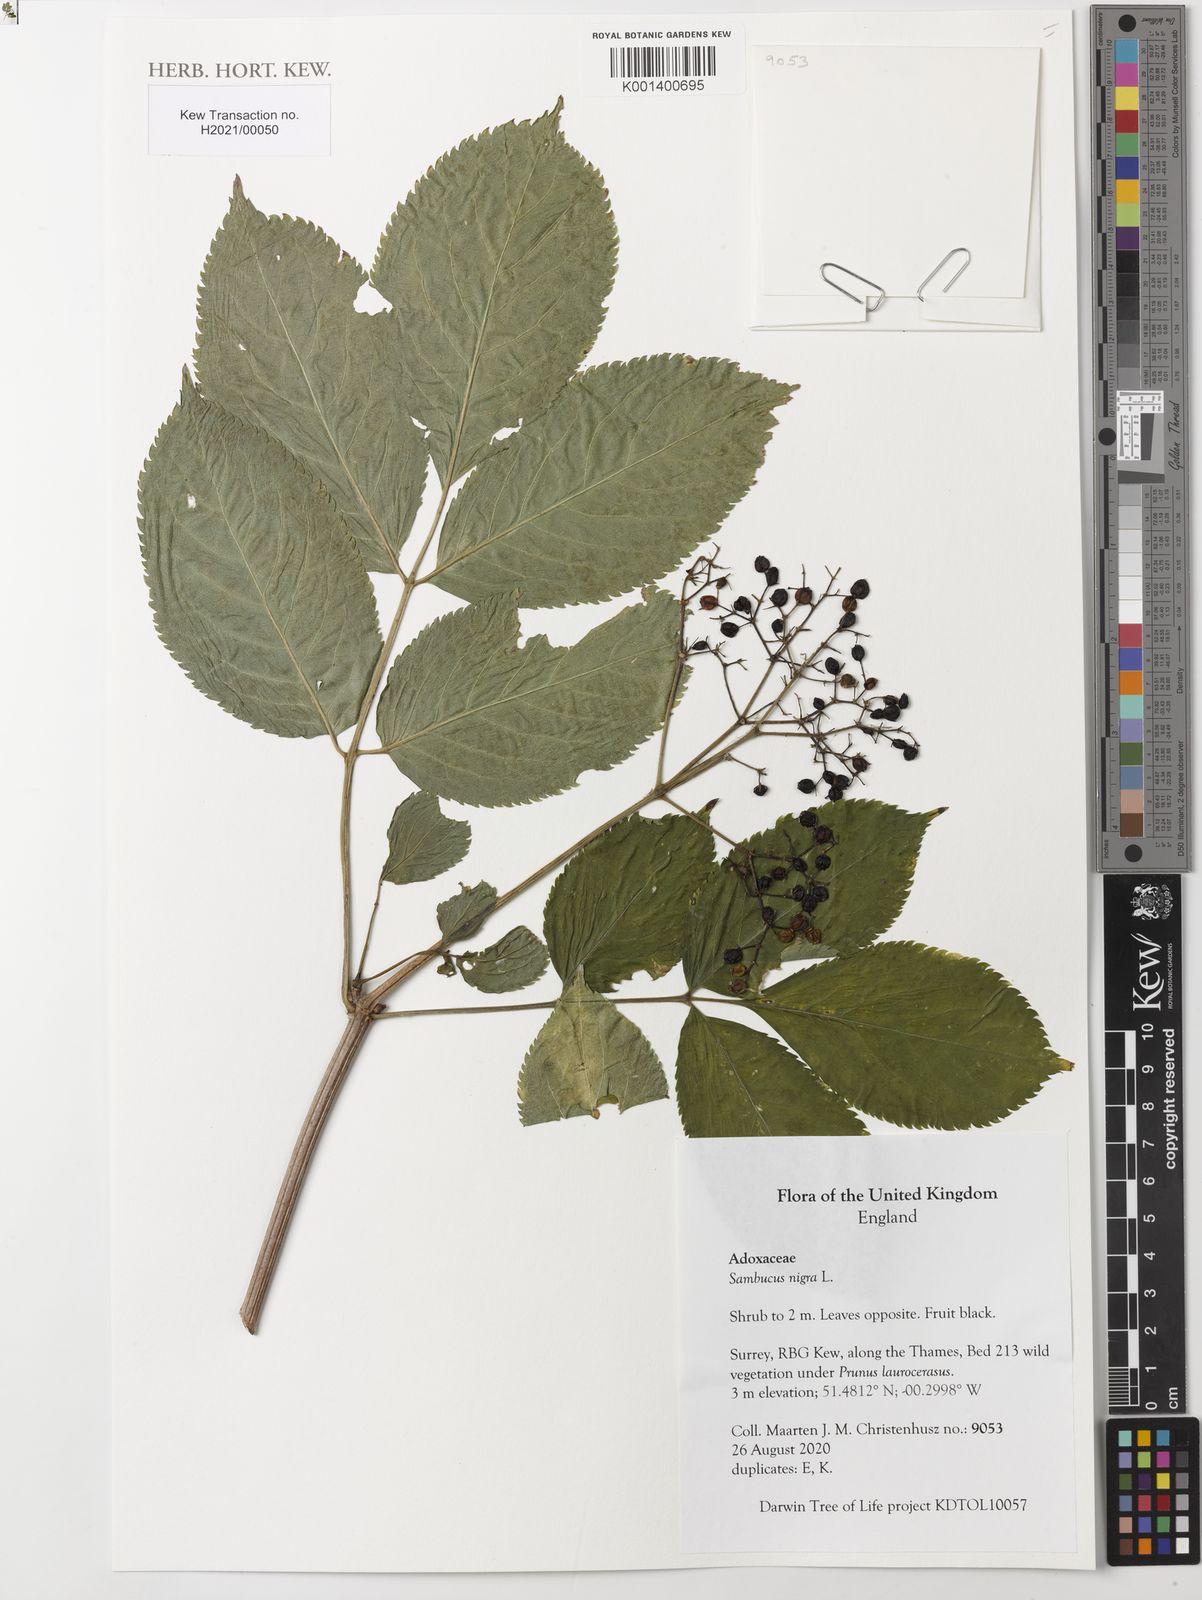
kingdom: Plantae
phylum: Tracheophyta
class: Magnoliopsida
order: Dipsacales
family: Viburnaceae
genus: Sambucus
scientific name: Sambucus nigra
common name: Elder
